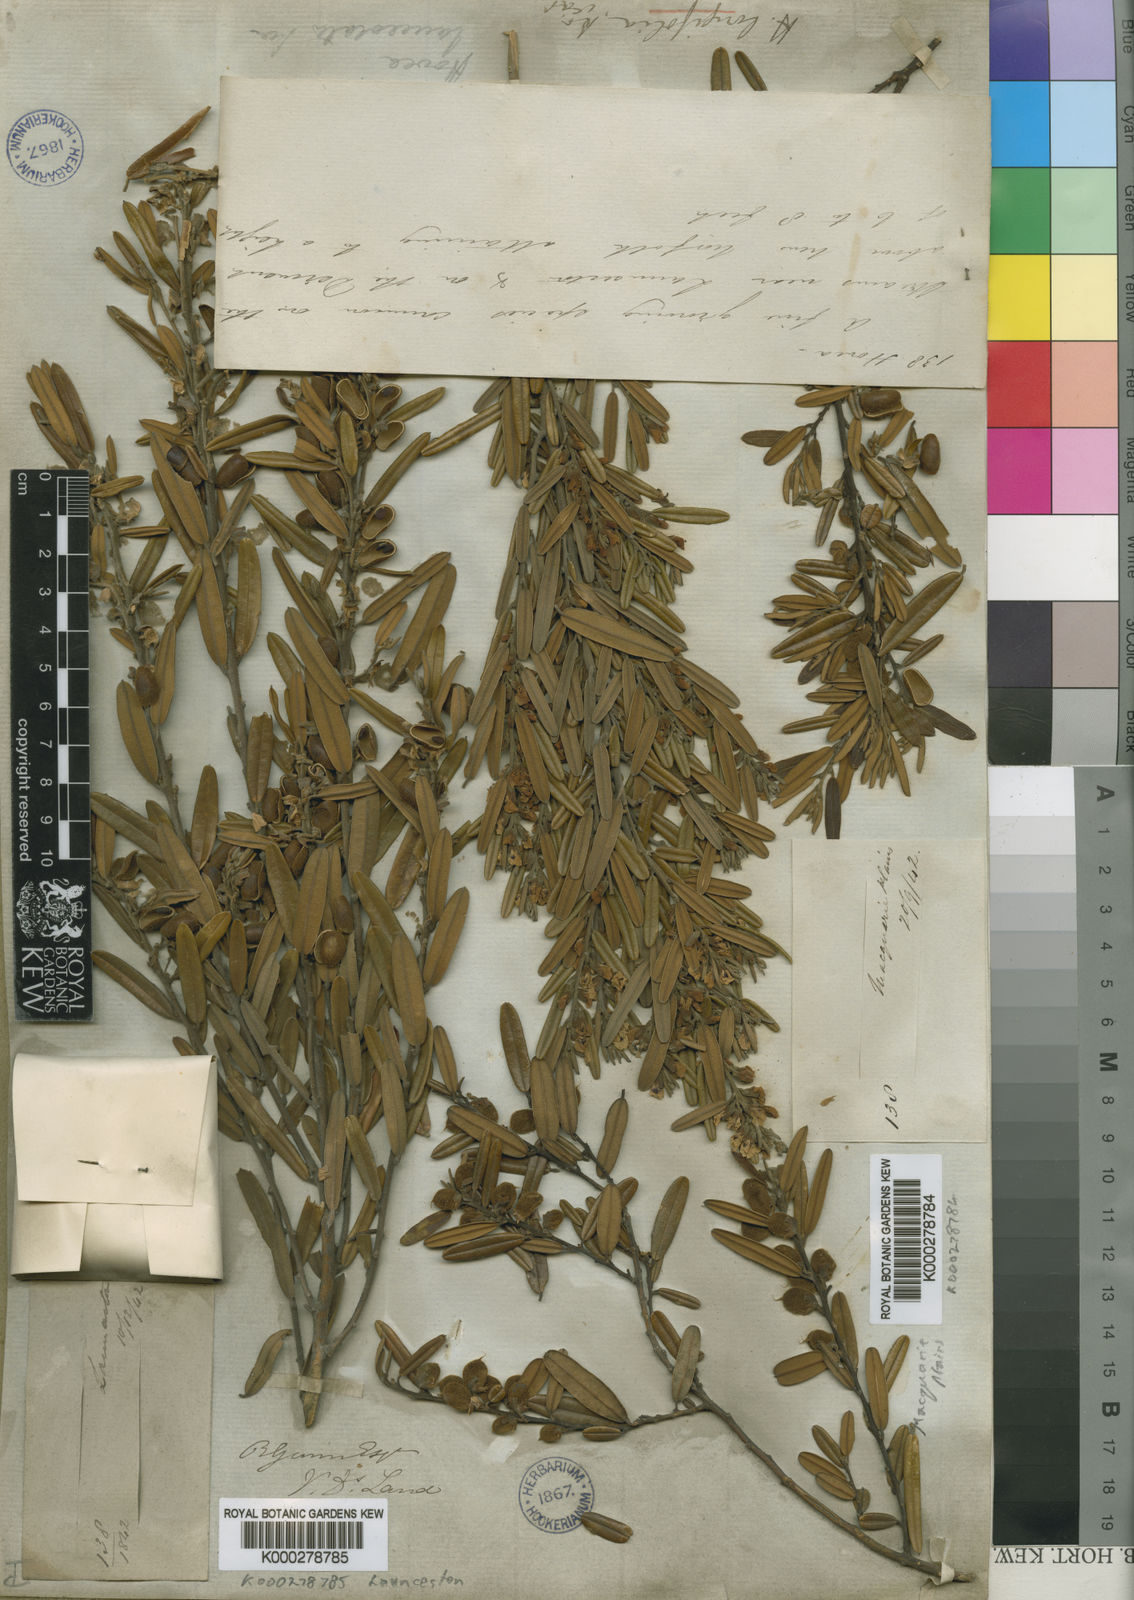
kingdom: Plantae
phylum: Tracheophyta
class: Magnoliopsida
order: Fabales
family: Fabaceae
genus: Hovea
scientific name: Hovea lanceolata
